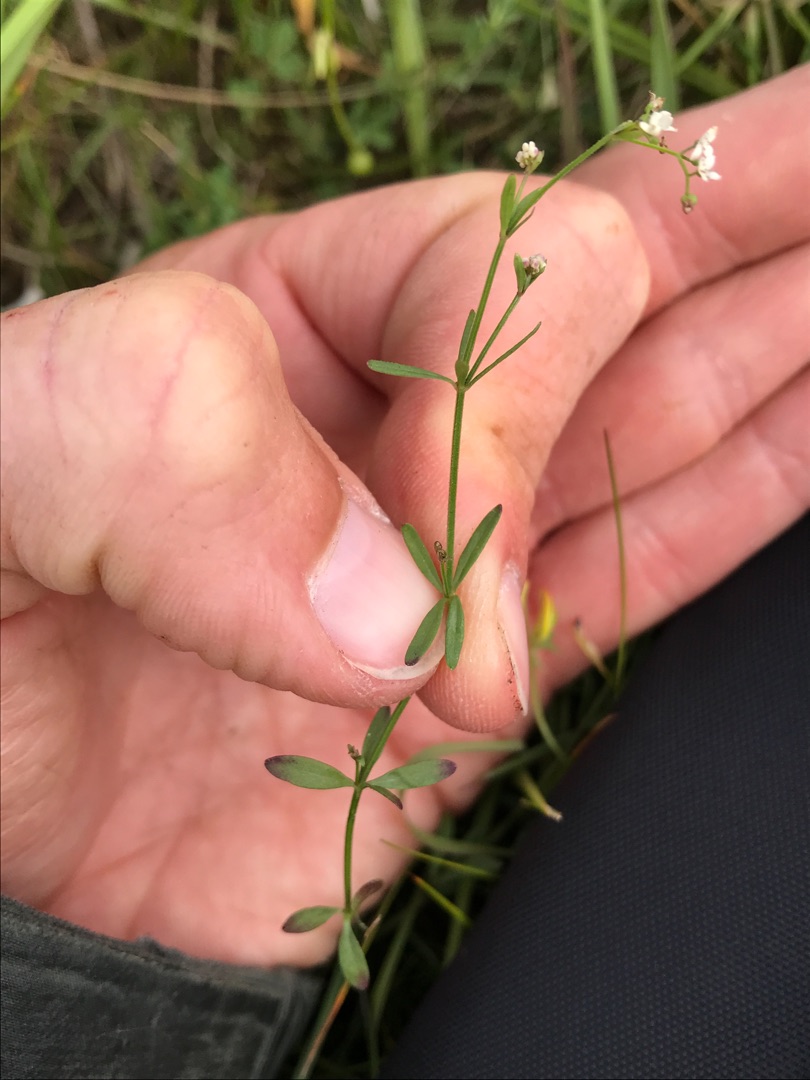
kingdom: Plantae
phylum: Tracheophyta
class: Magnoliopsida
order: Gentianales
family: Rubiaceae
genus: Galium
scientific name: Galium palustre
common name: Kær-snerre
